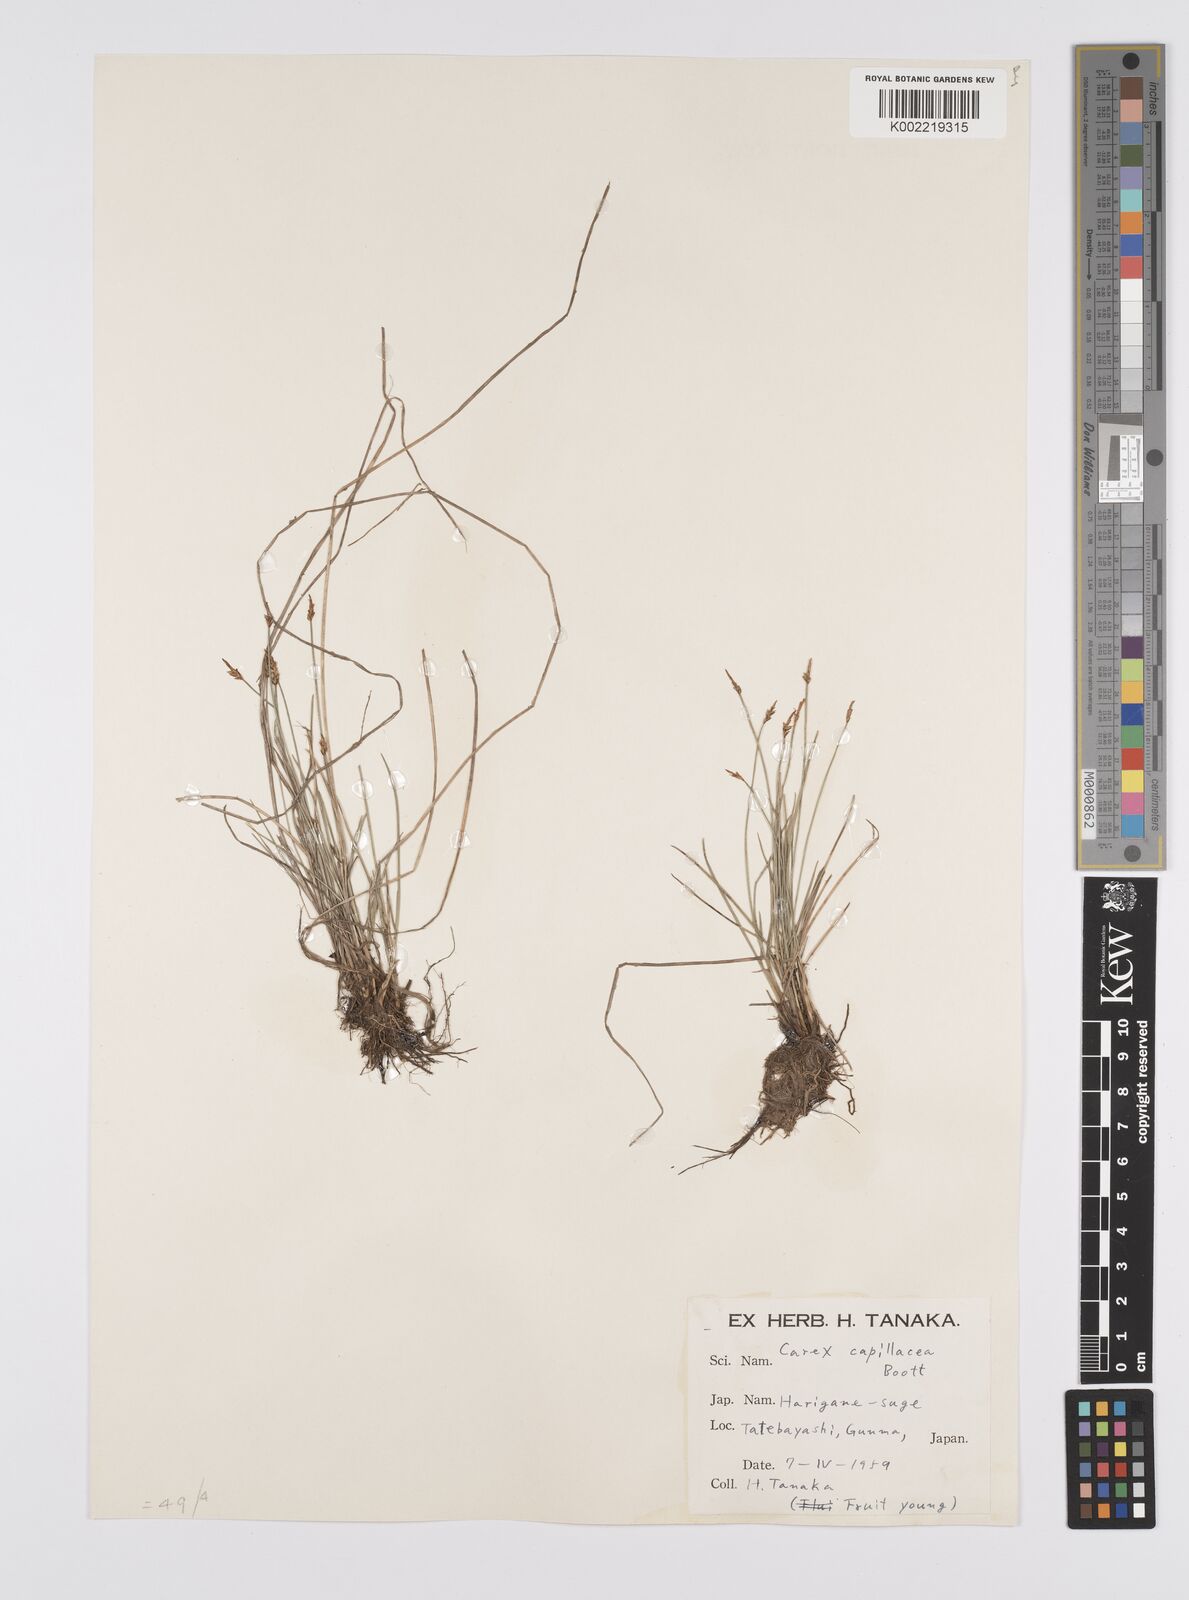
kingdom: Plantae
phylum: Tracheophyta
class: Liliopsida
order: Poales
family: Cyperaceae
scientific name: Cyperaceae
